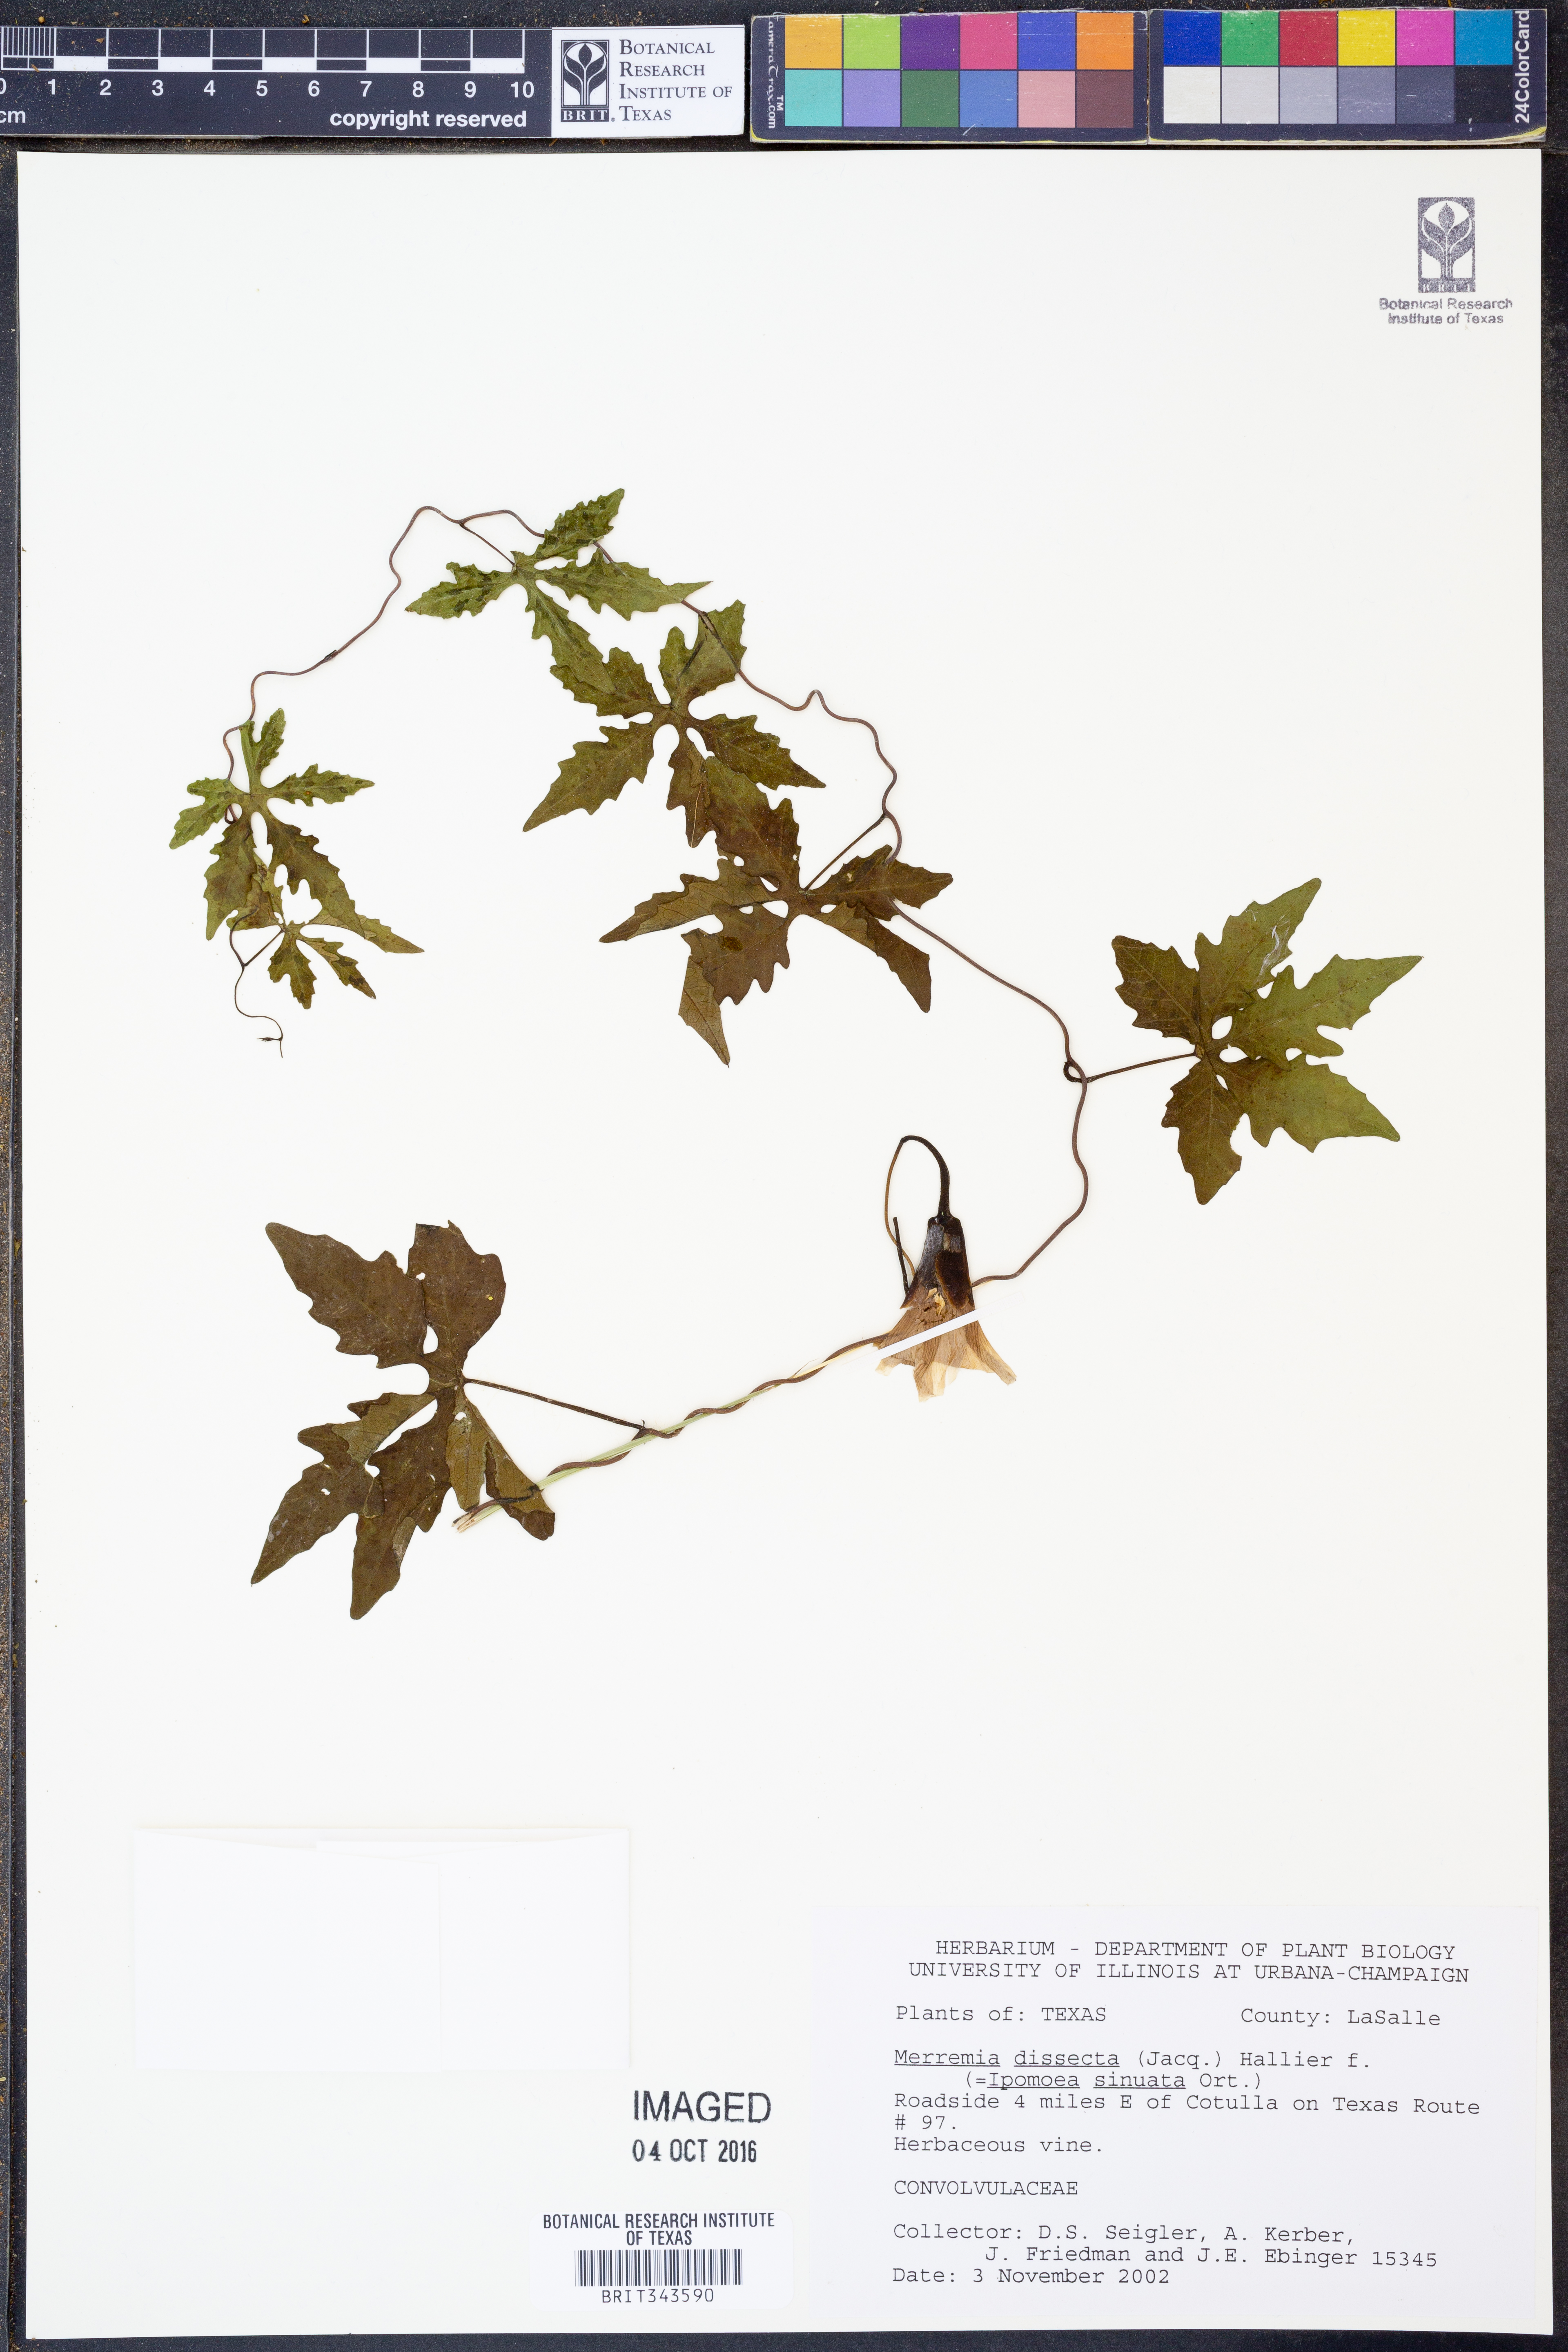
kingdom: Plantae
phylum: Tracheophyta
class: Magnoliopsida
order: Solanales
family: Convolvulaceae
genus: Distimake
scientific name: Distimake dissectus
